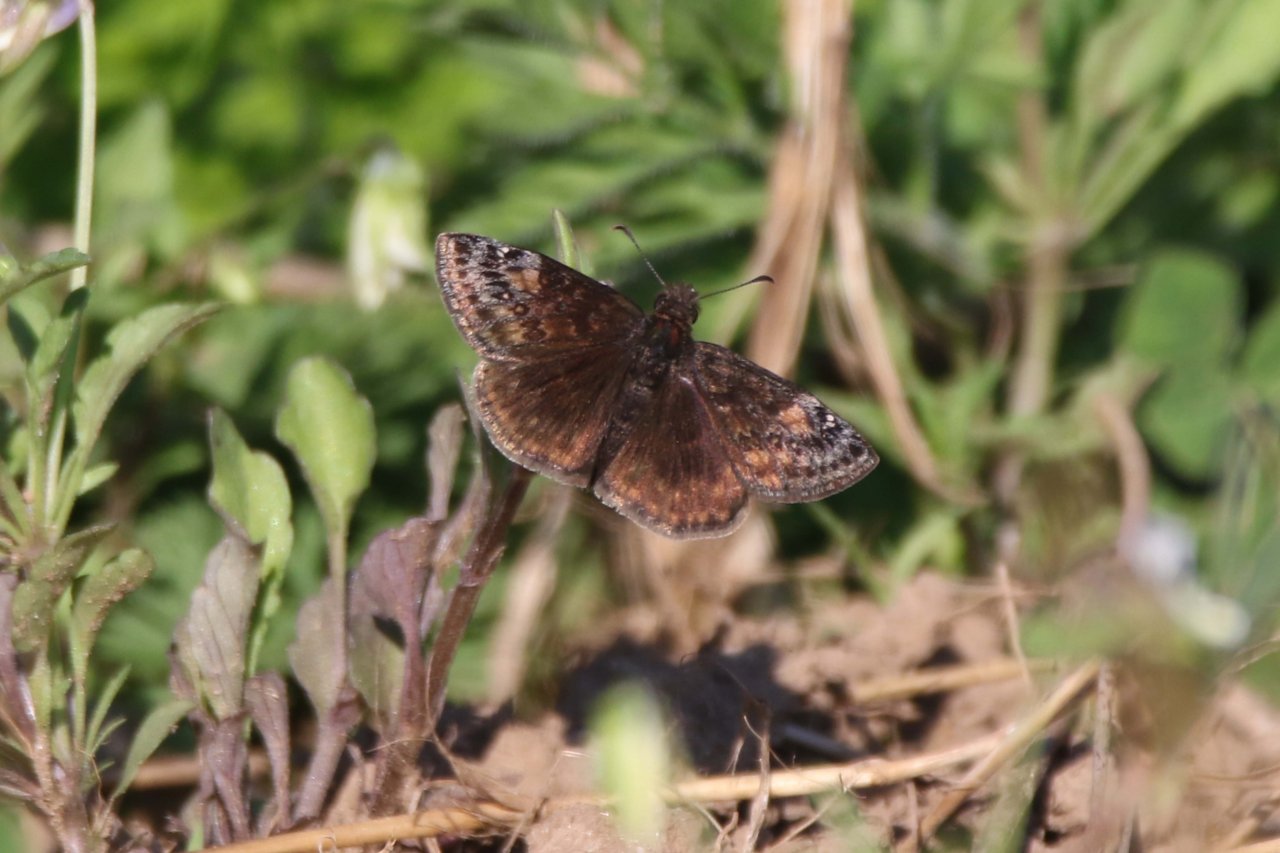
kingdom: Animalia
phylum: Arthropoda
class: Insecta
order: Lepidoptera
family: Hesperiidae
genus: Gesta
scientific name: Gesta
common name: Wild Indigo Duskywing
